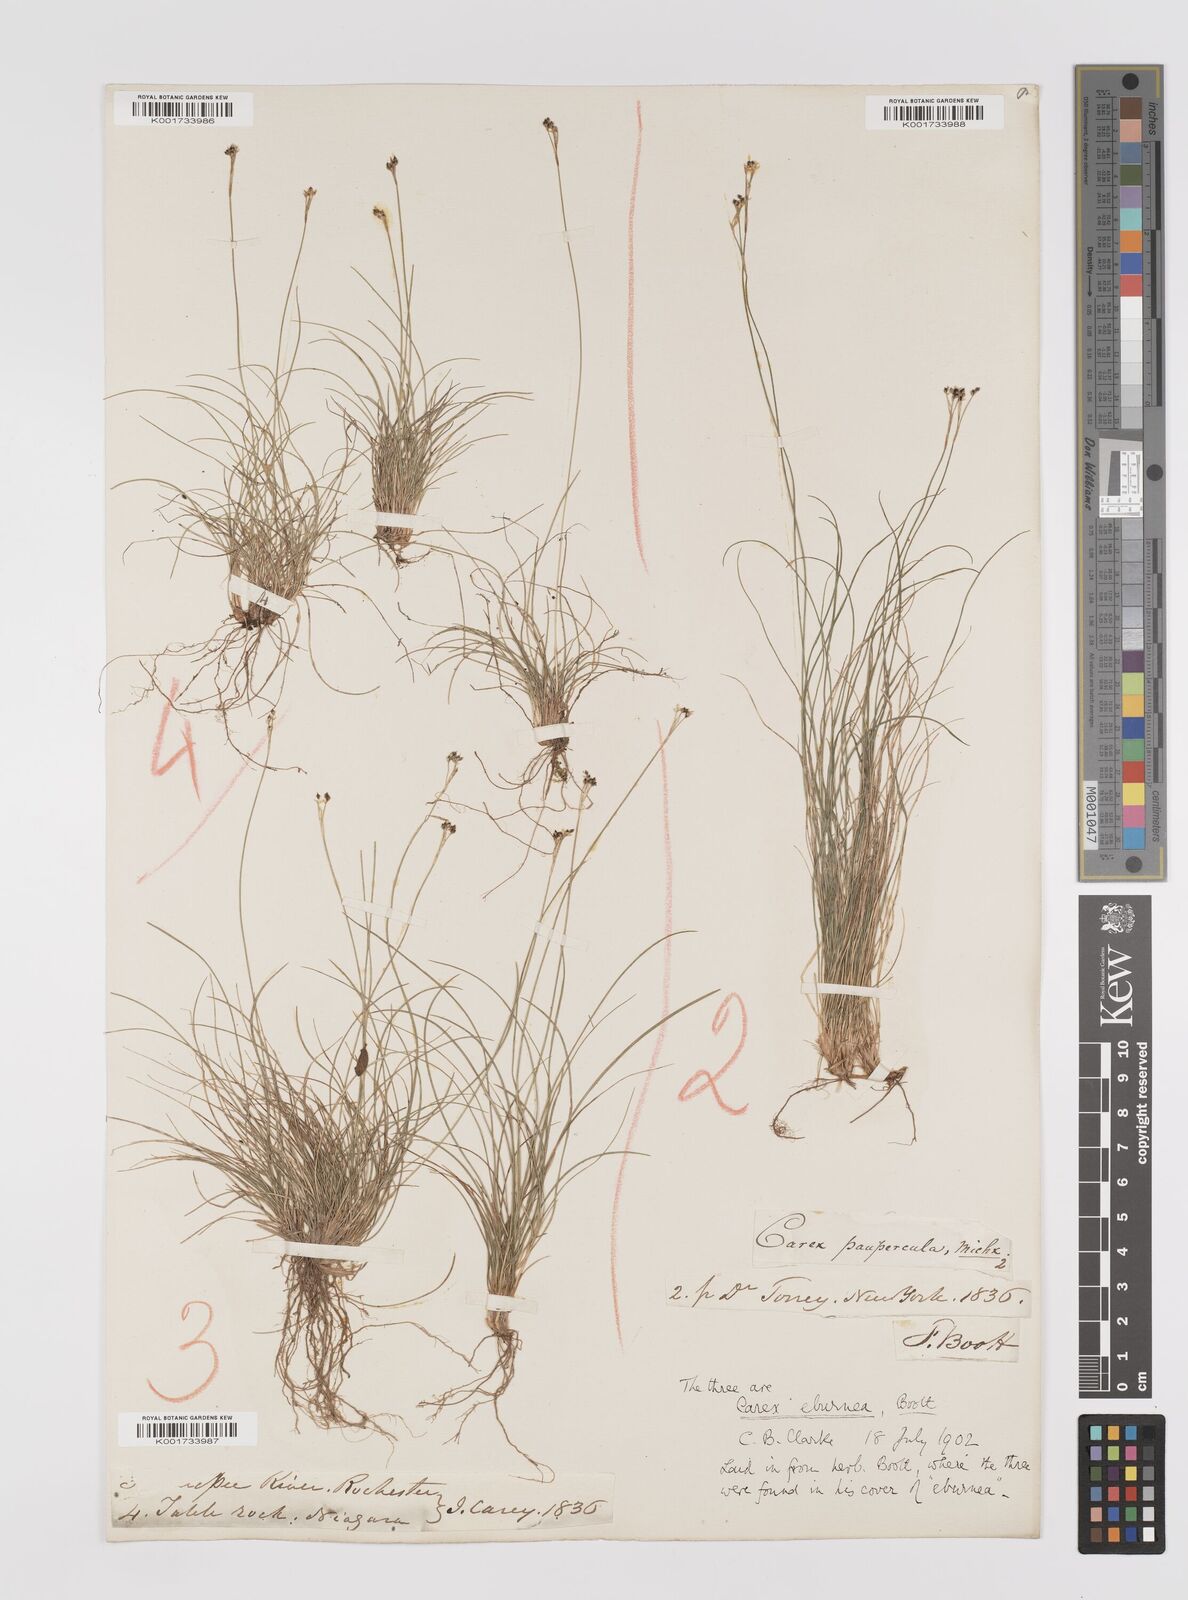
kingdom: Plantae
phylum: Tracheophyta
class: Liliopsida
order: Poales
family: Cyperaceae
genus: Carex
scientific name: Carex eburnea
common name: Bristle-leaved sedge
